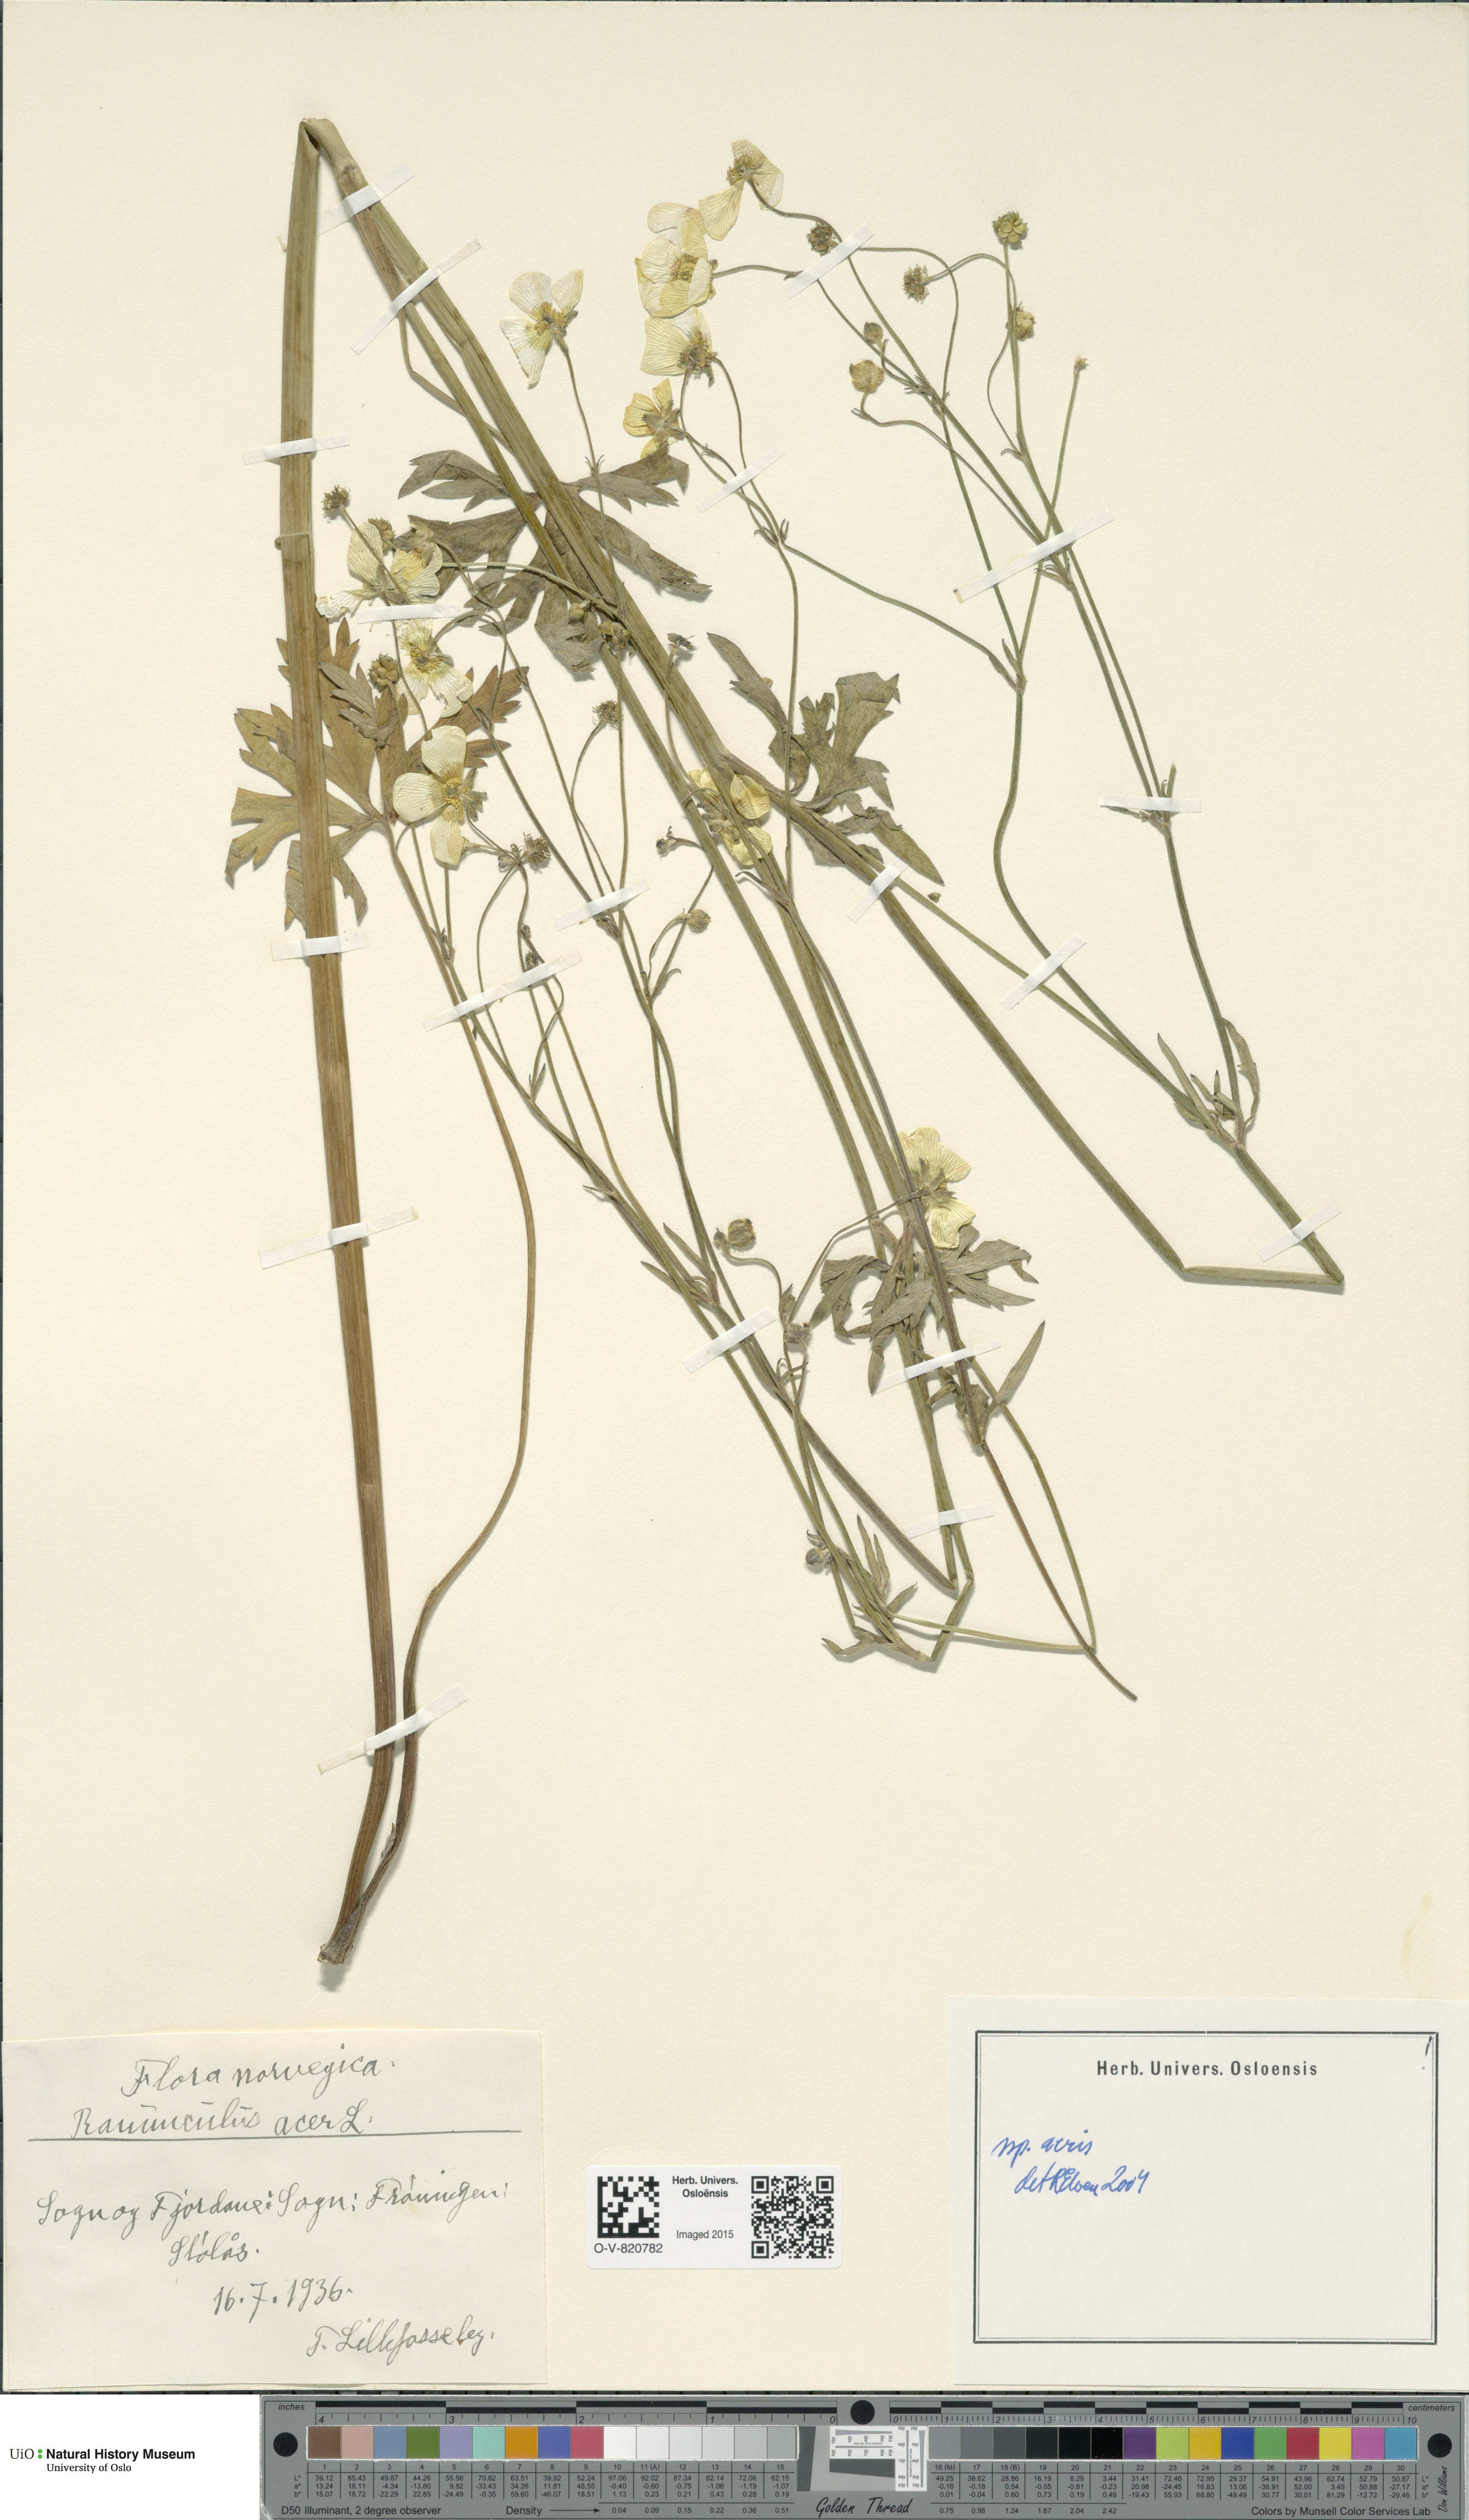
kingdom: Plantae
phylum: Tracheophyta
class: Magnoliopsida
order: Ranunculales
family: Ranunculaceae
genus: Ranunculus
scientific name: Ranunculus acris
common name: Meadow buttercup
